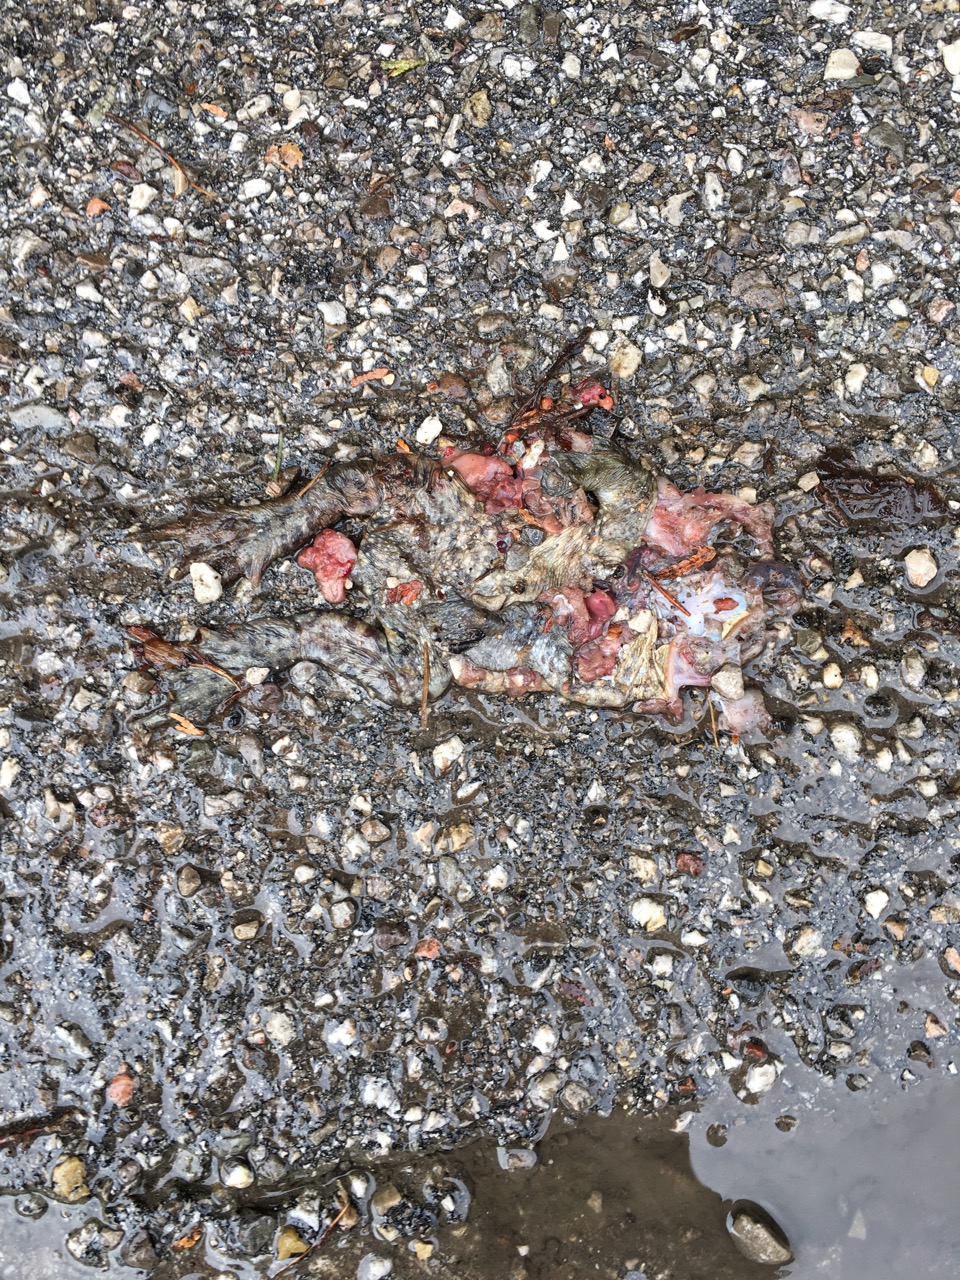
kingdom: Animalia
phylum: Chordata
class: Amphibia
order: Anura
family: Bufonidae
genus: Bufo
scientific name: Bufo bufo
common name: Common toad
